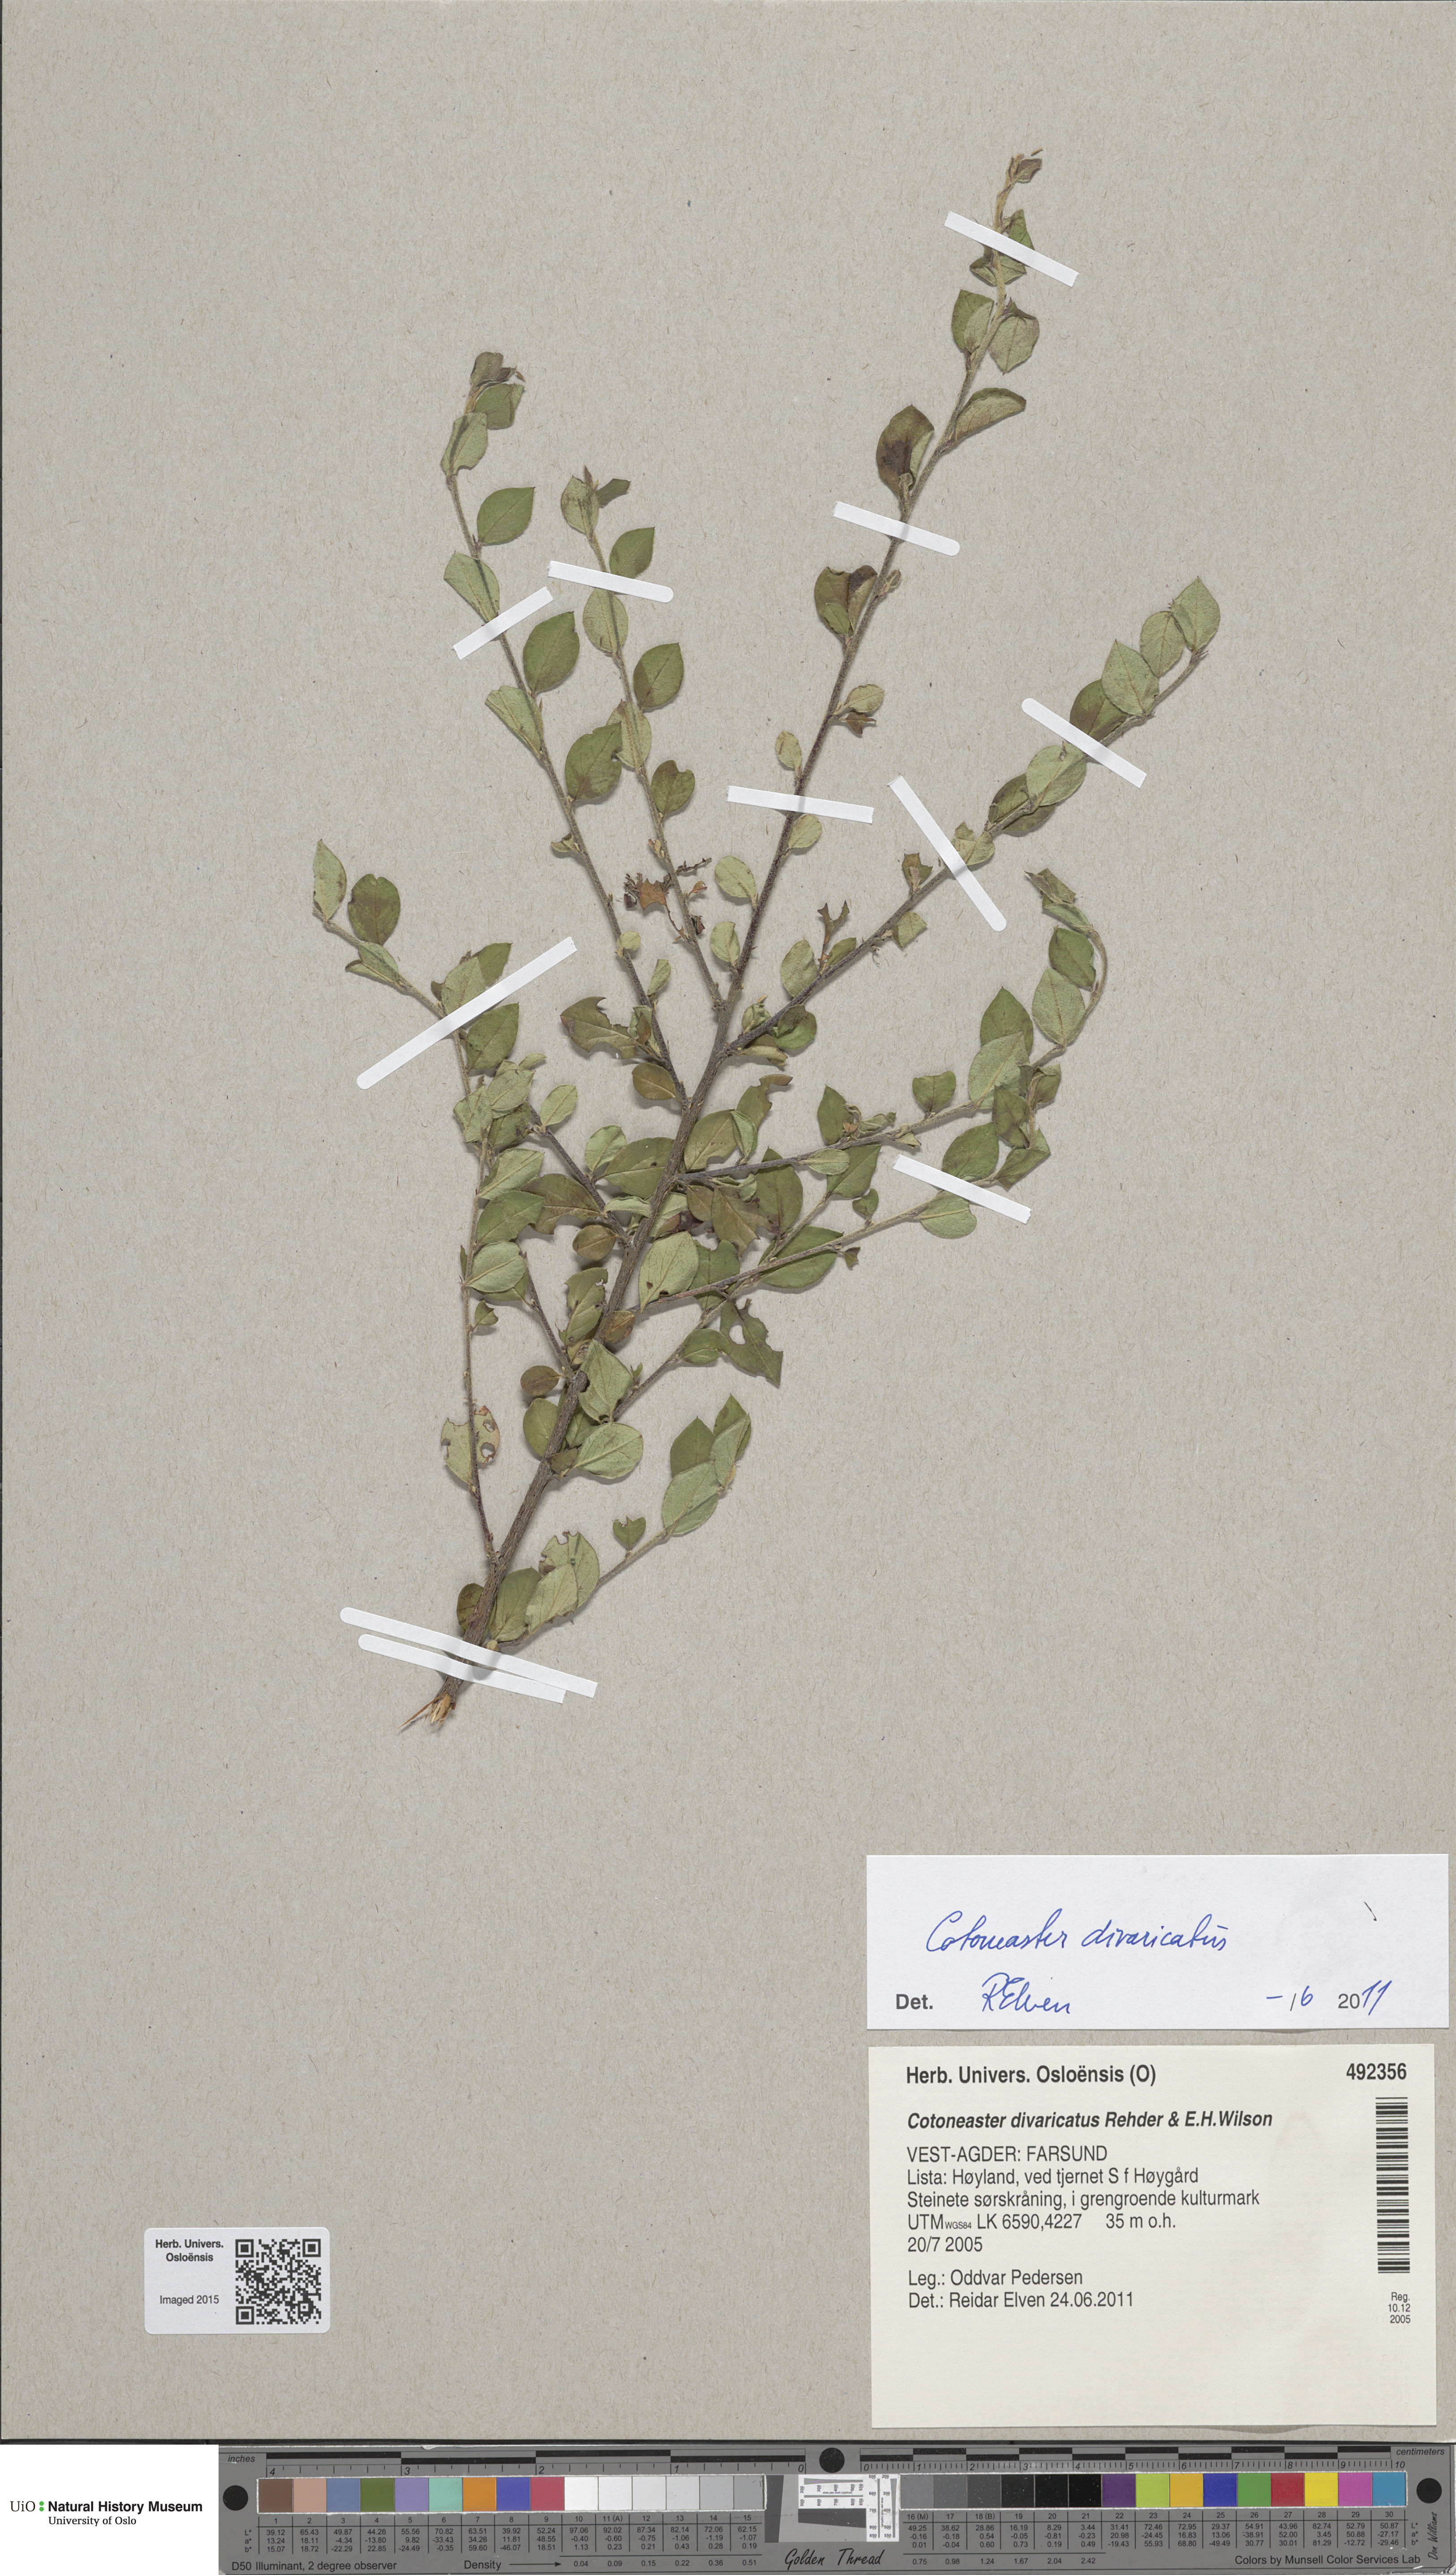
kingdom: Plantae
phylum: Tracheophyta
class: Magnoliopsida
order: Rosales
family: Rosaceae
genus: Cotoneaster
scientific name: Cotoneaster divaricatus
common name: Spreading cotoneaster
